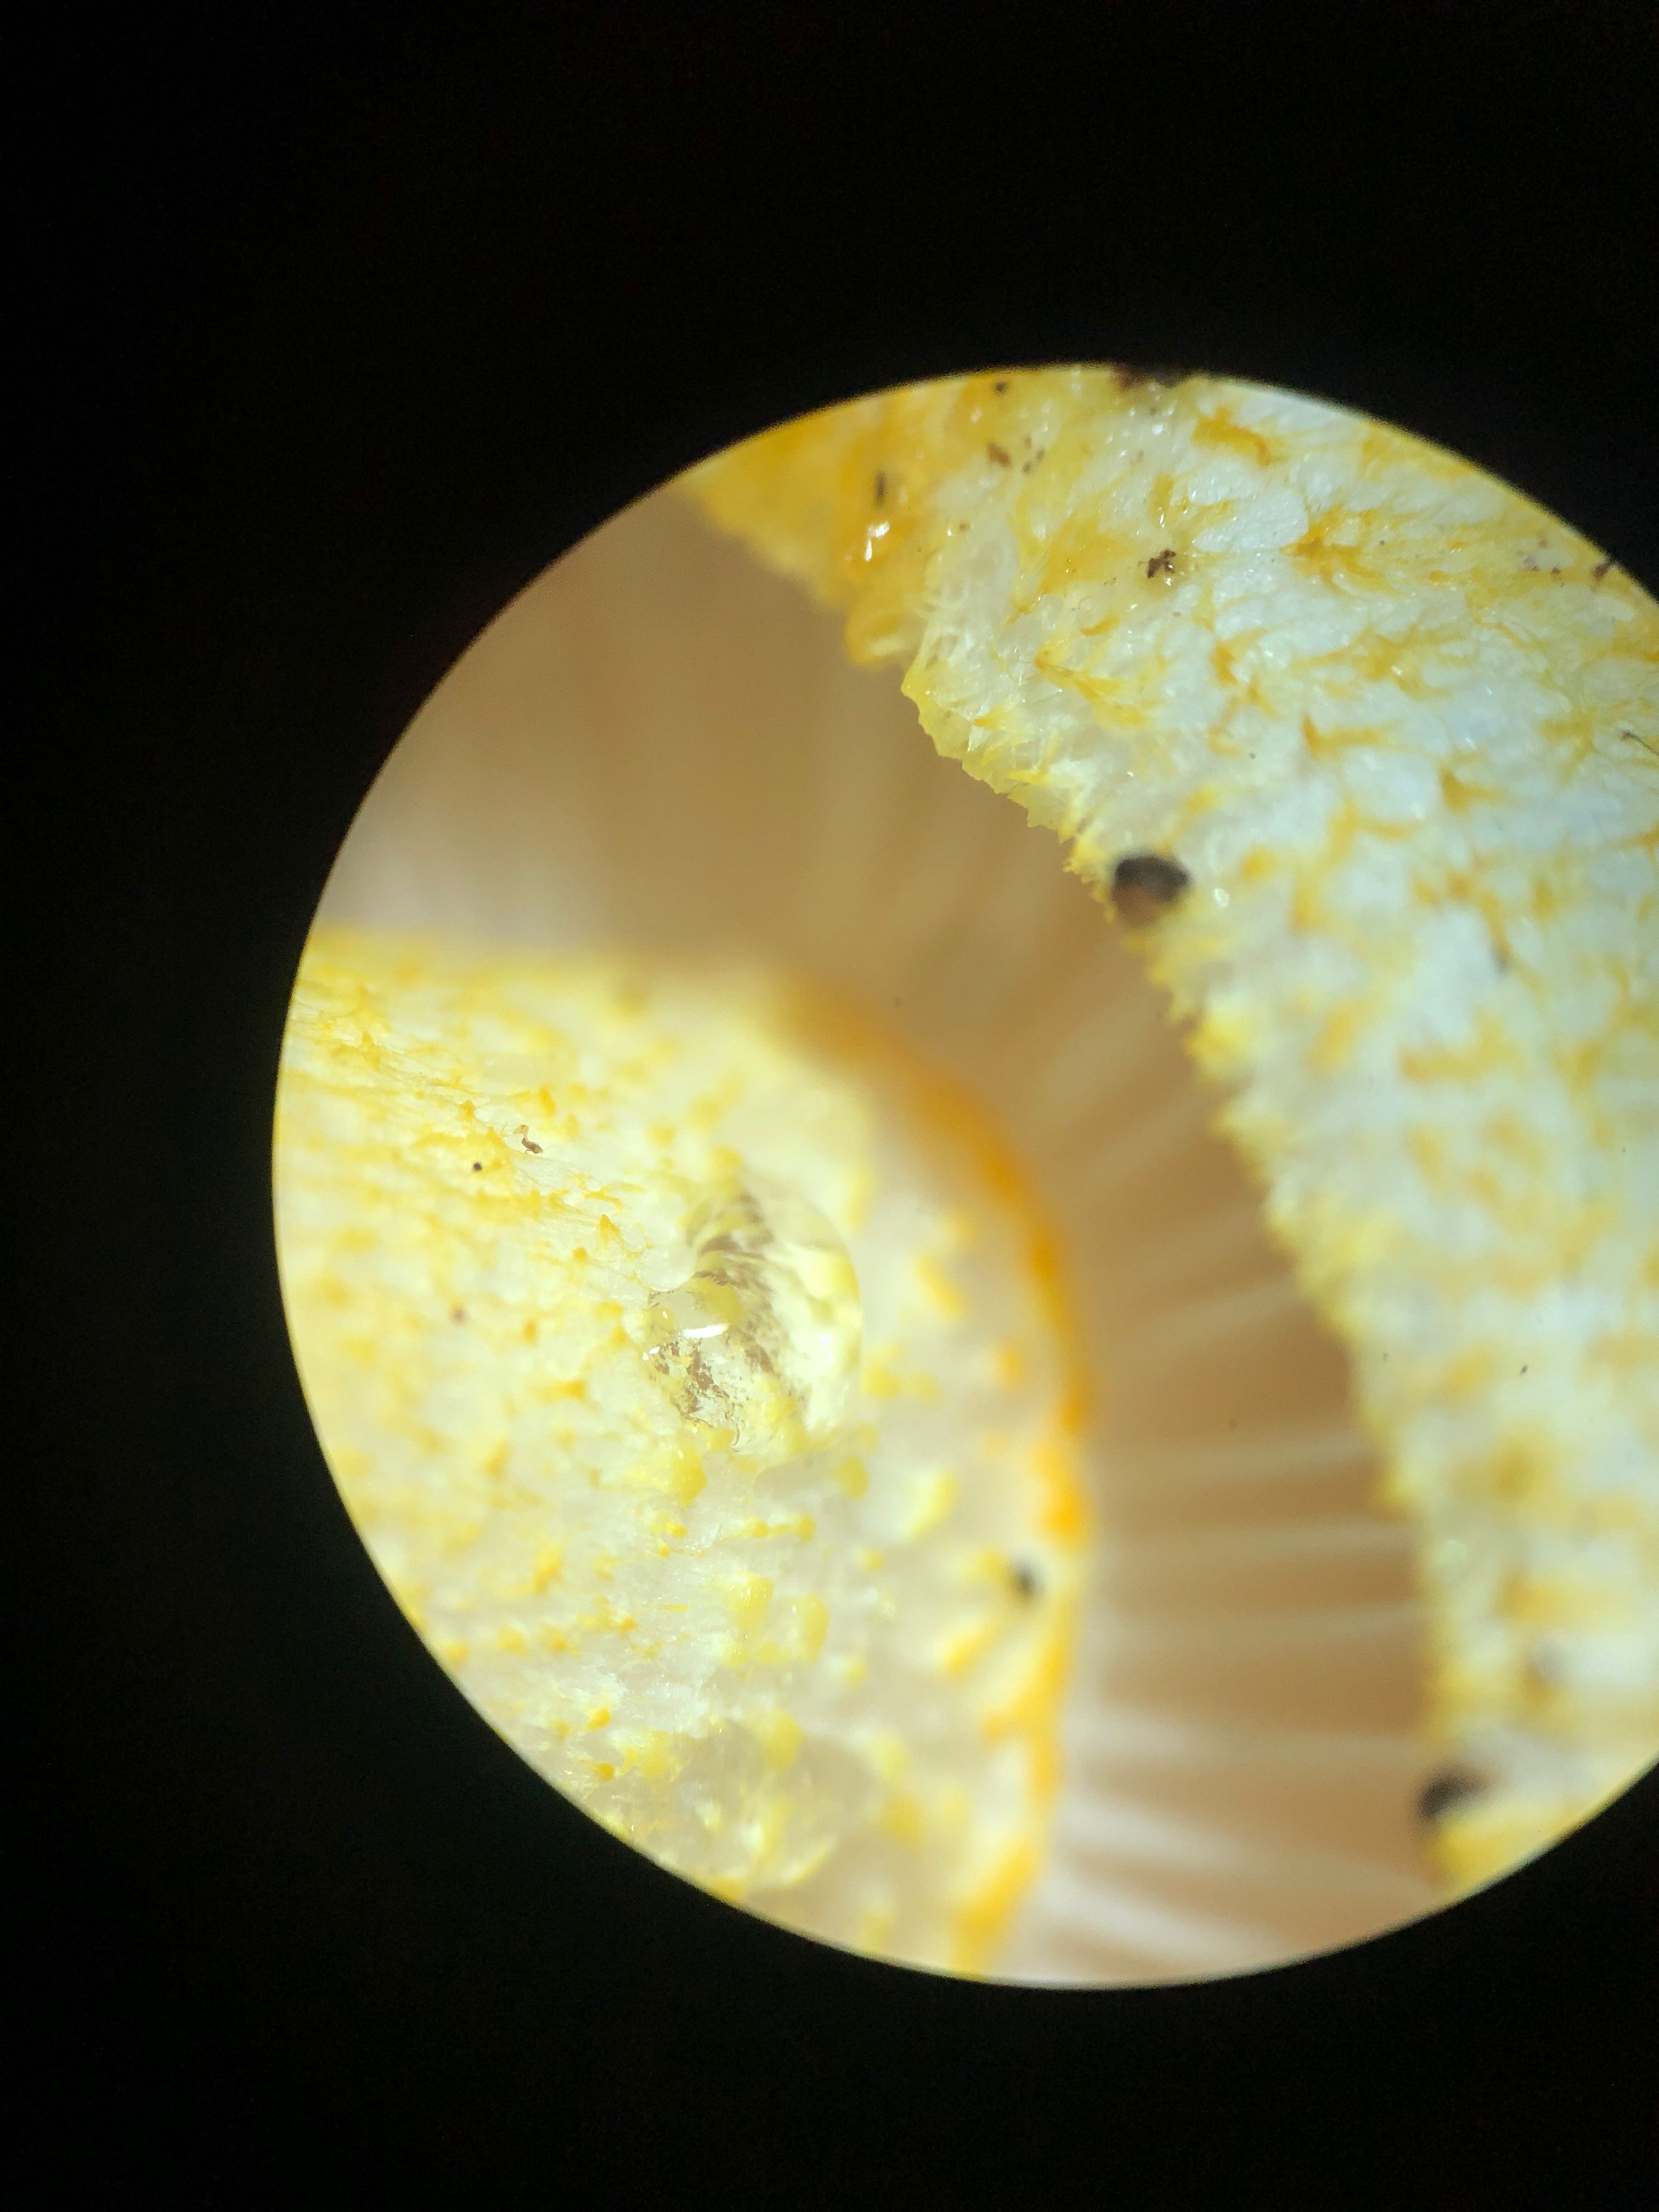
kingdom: Fungi
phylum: Basidiomycota
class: Agaricomycetes
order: Agaricales
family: Hygrophoraceae
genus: Hygrophorus
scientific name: Hygrophorus chrysodon
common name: gulfnugget sneglehat
